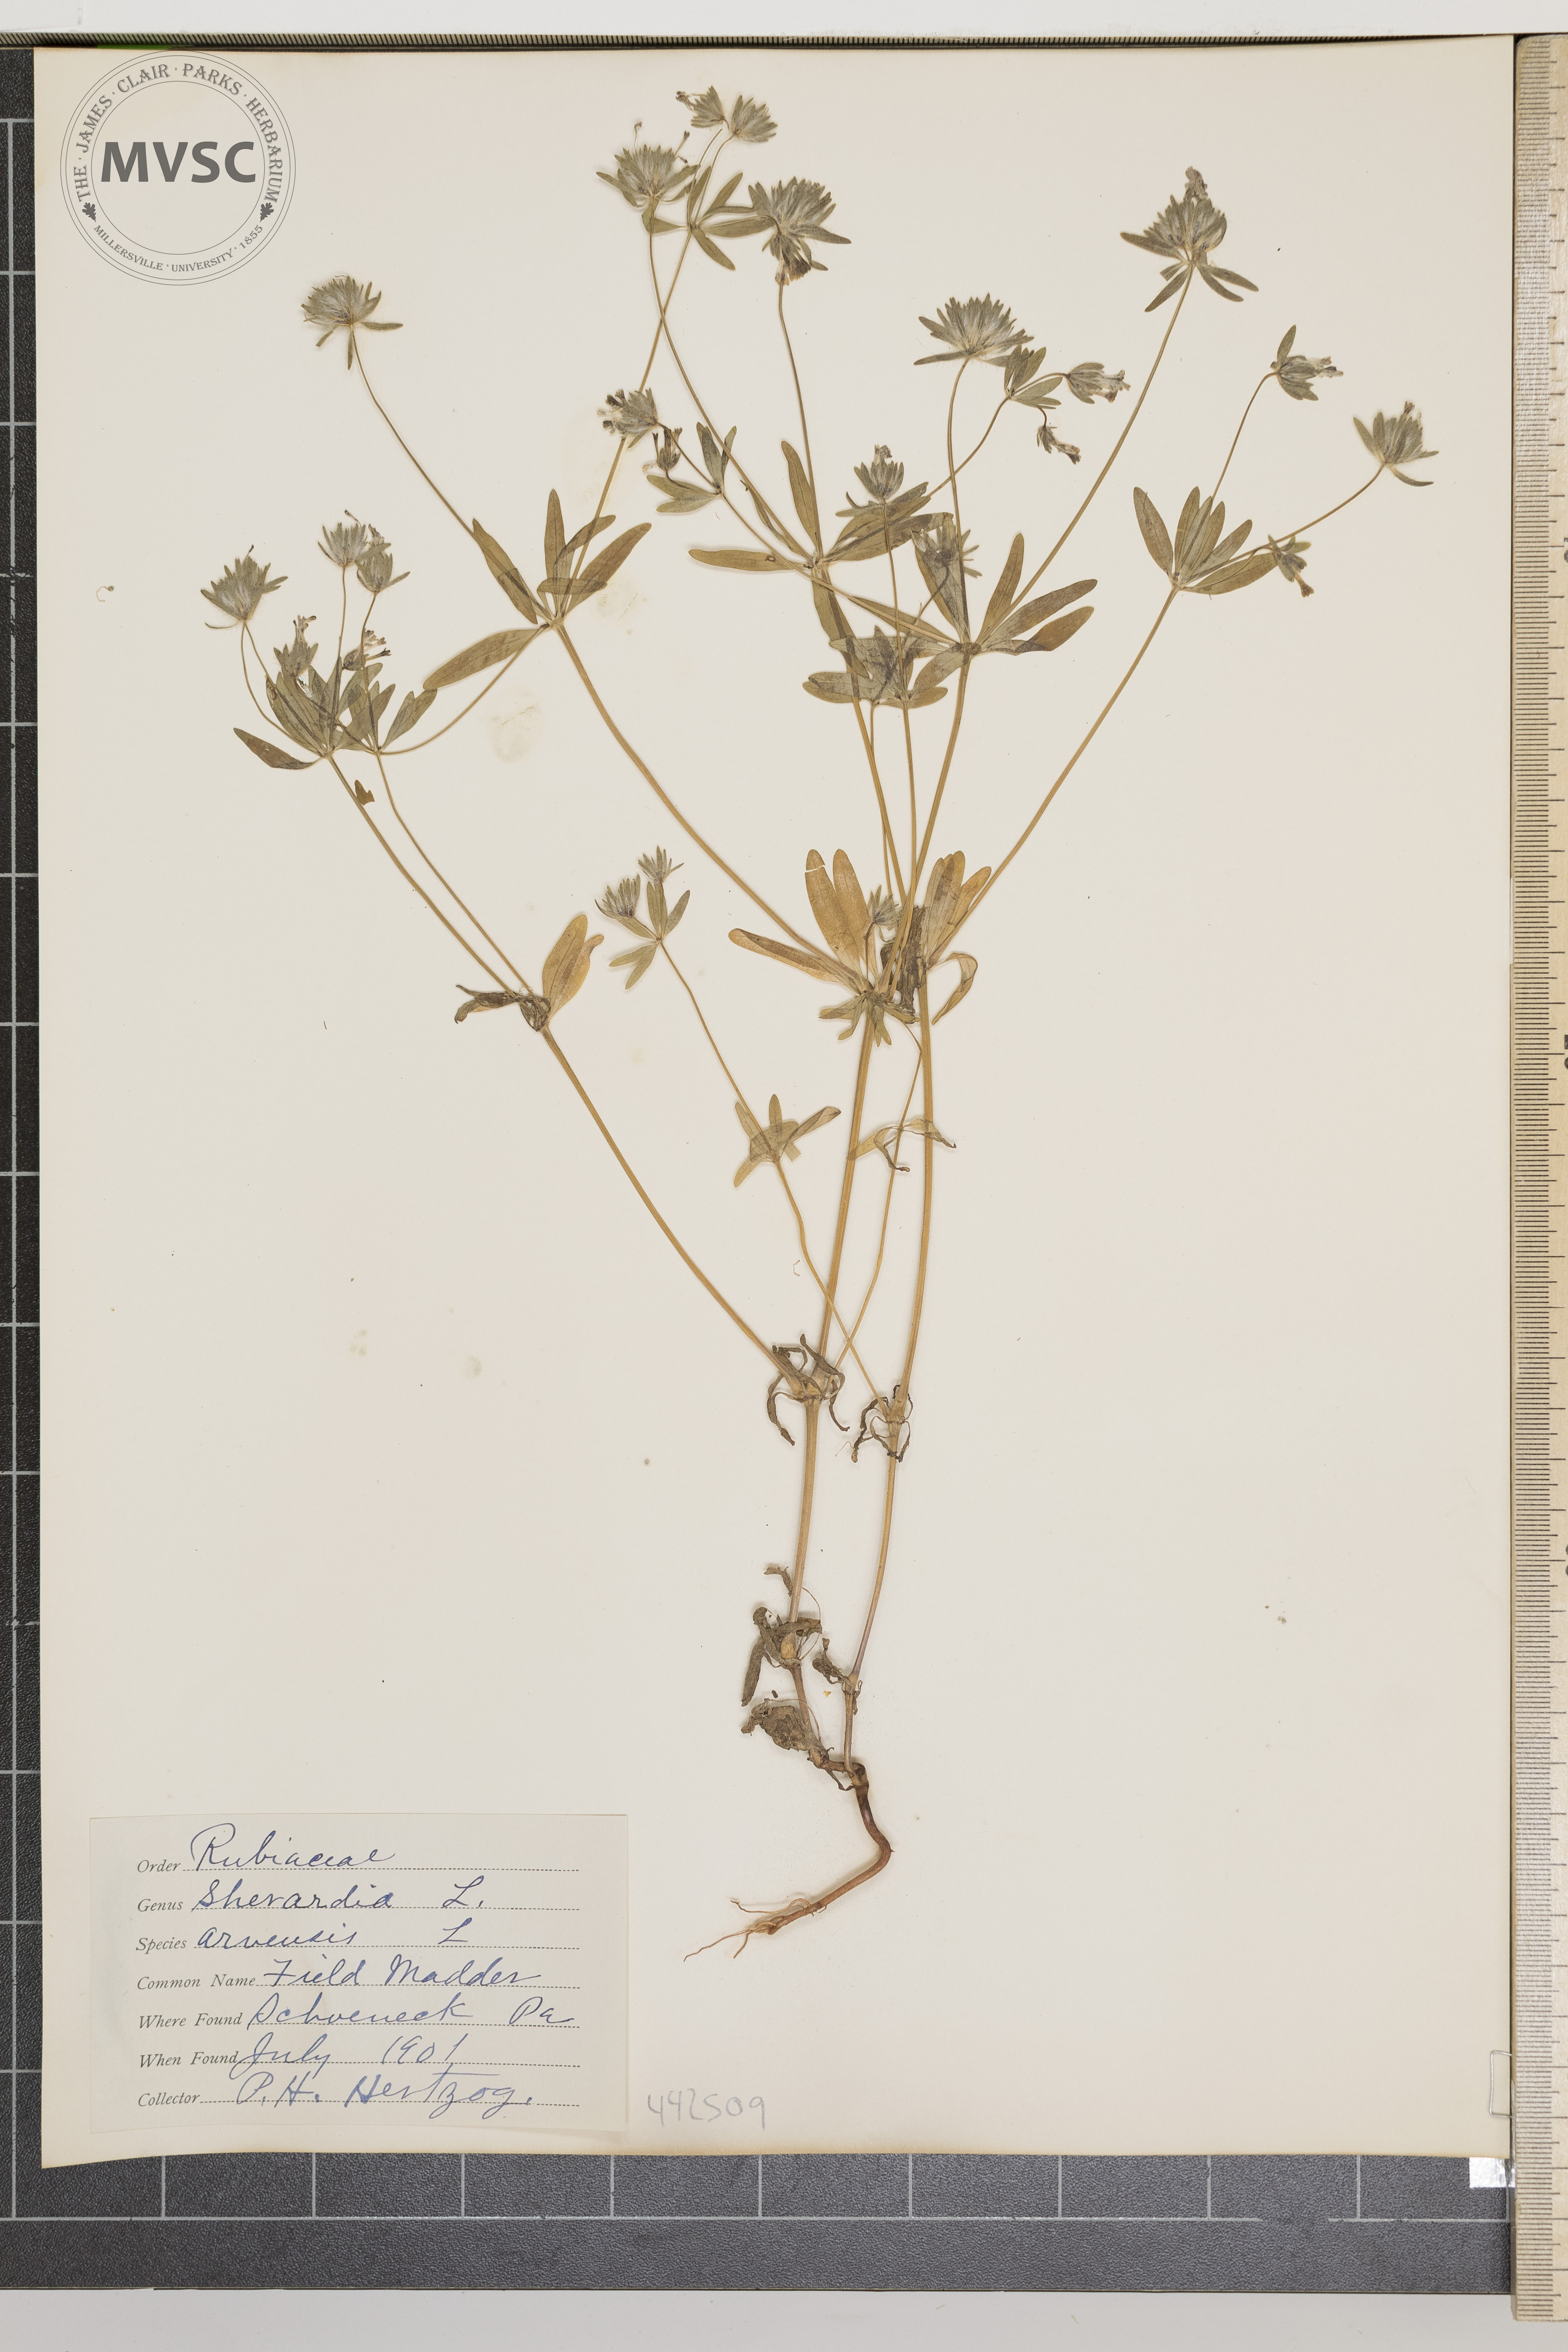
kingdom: Plantae
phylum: Tracheophyta
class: Magnoliopsida
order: Gentianales
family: Rubiaceae
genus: Sherardia
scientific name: Sherardia arvensis
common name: Field madder
